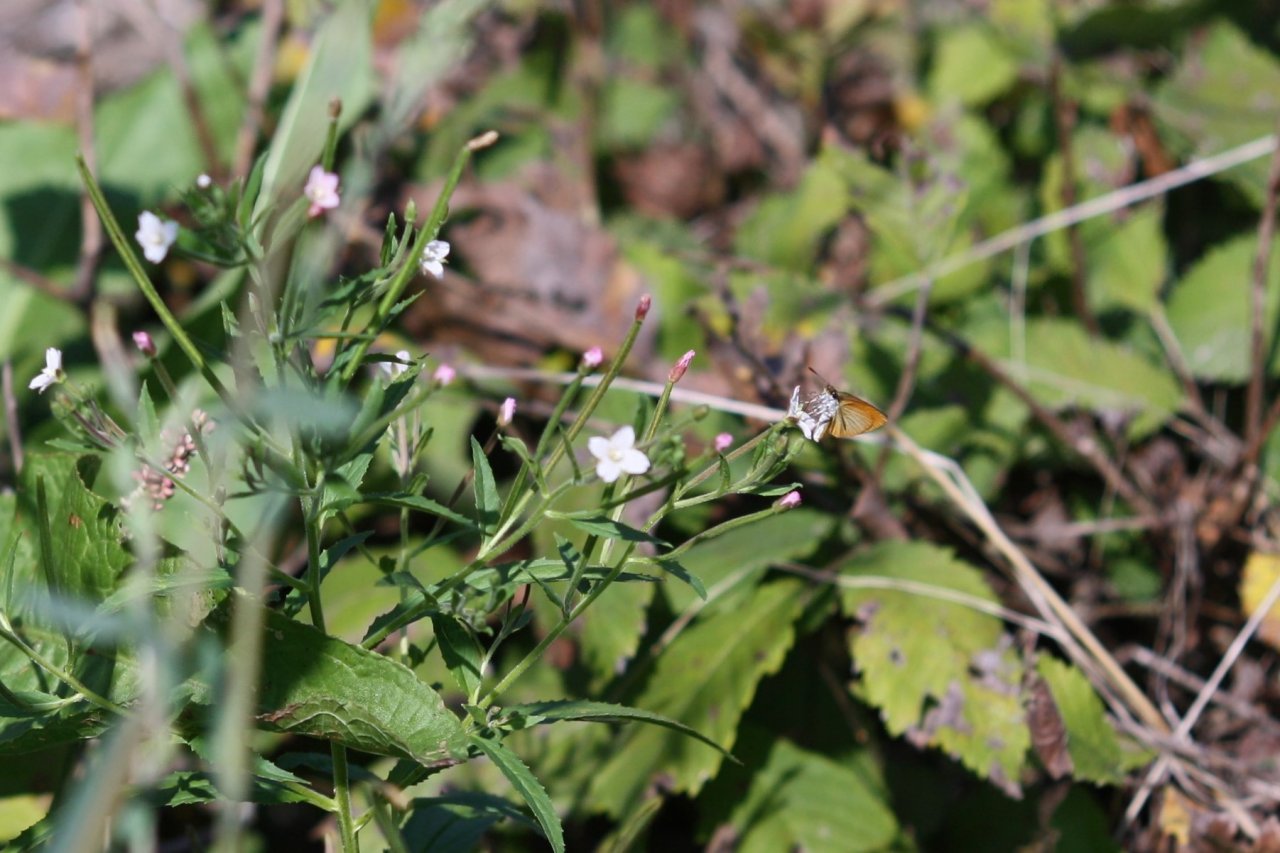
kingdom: Animalia
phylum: Arthropoda
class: Insecta
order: Lepidoptera
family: Hesperiidae
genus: Ancyloxypha
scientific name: Ancyloxypha numitor
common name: Least Skipper
